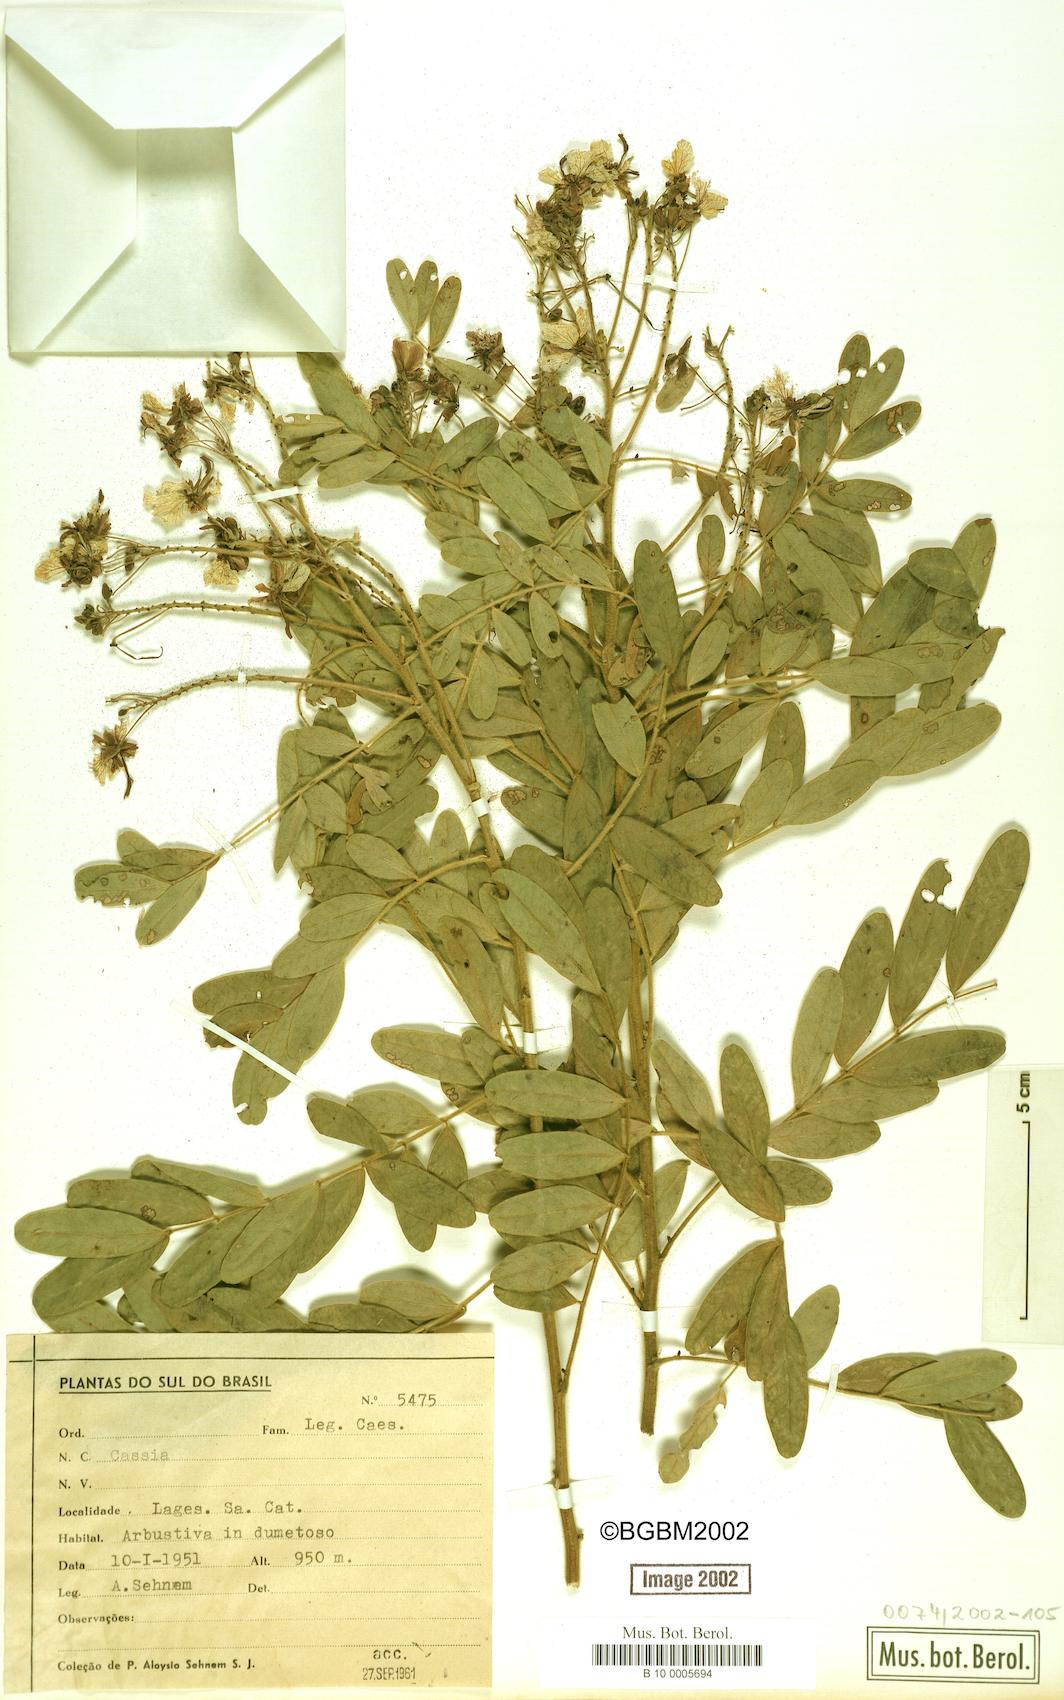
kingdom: Plantae
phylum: Tracheophyta
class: Magnoliopsida
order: Fabales
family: Fabaceae
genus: Cassia
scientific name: Cassia
